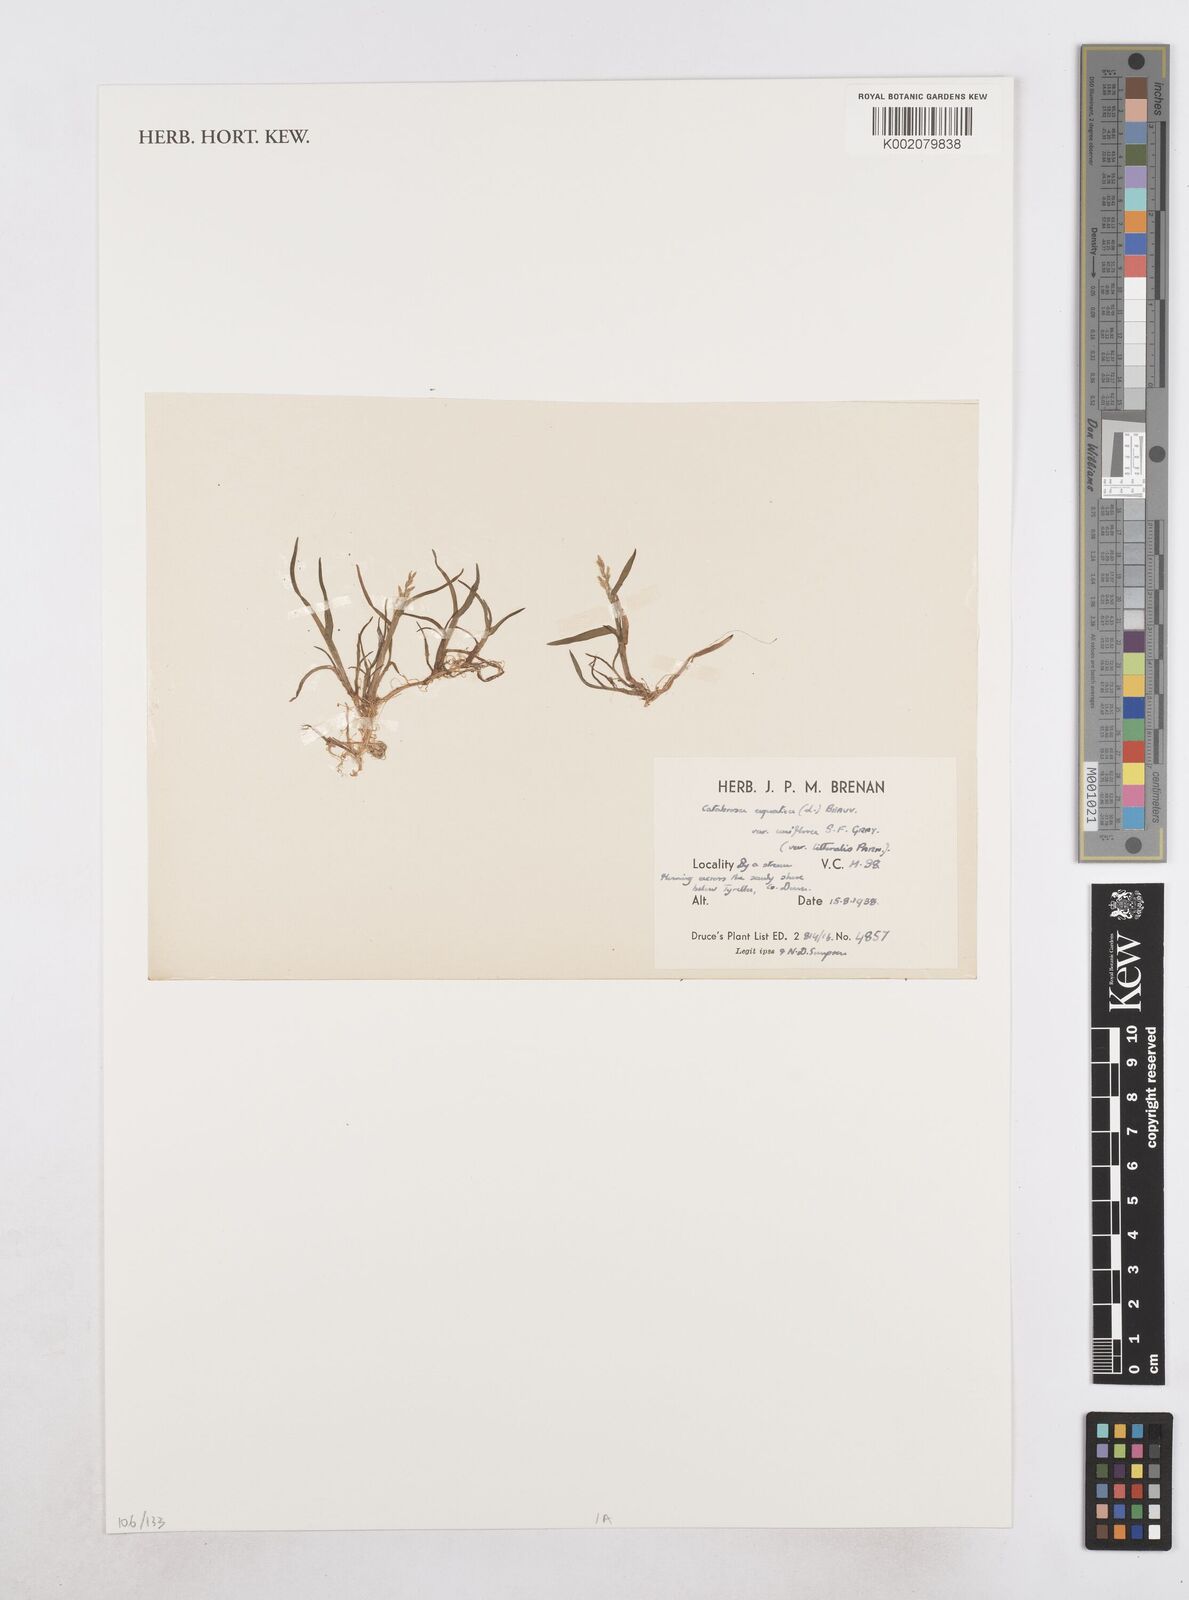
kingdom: Plantae
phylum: Tracheophyta
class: Liliopsida
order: Poales
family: Poaceae
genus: Catabrosa
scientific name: Catabrosa aquatica
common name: Whorl-grass
